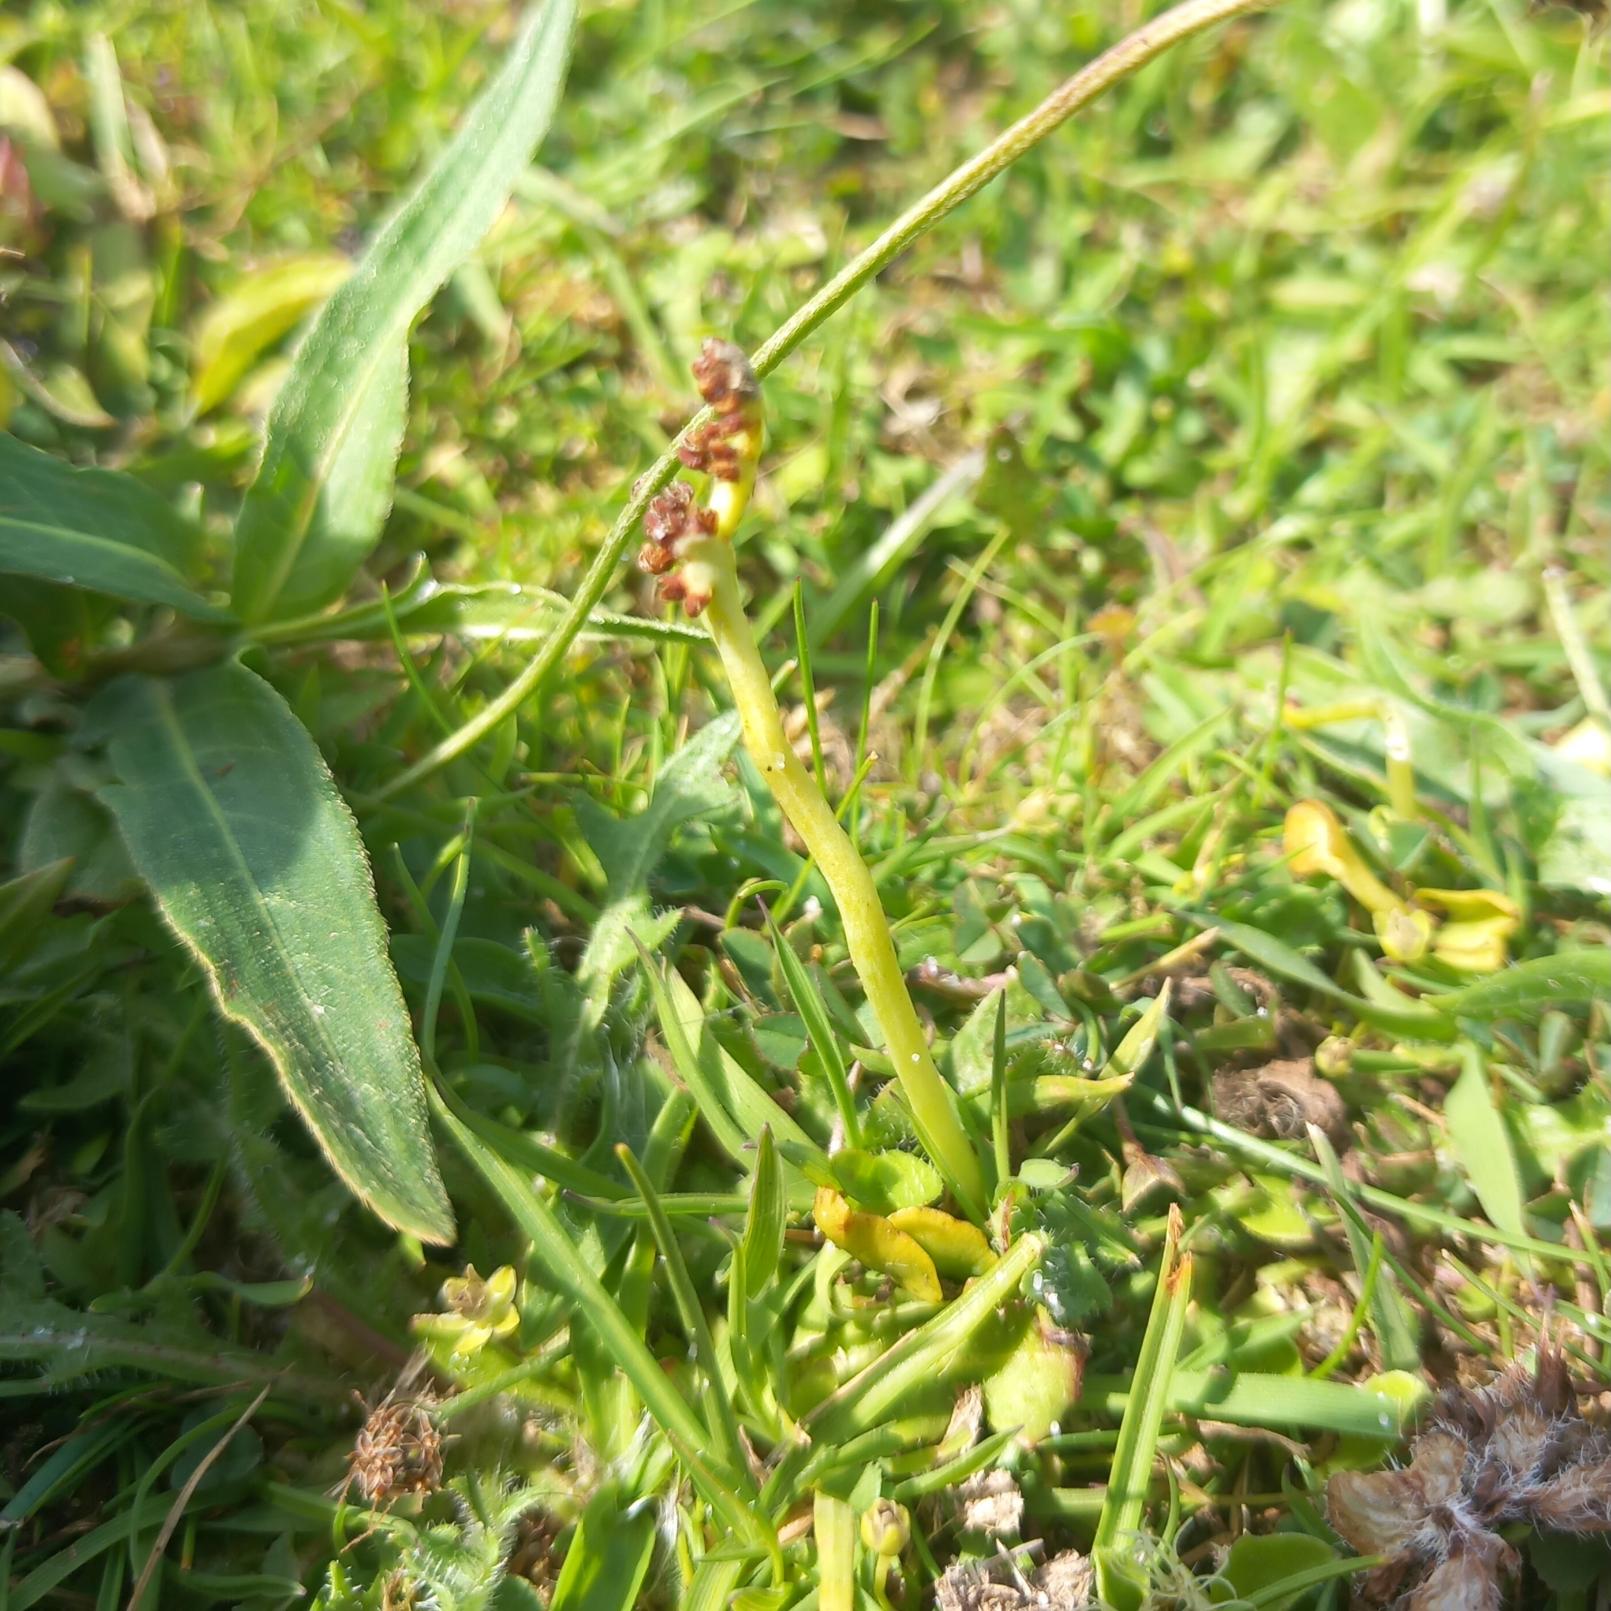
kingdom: Plantae
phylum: Tracheophyta
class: Polypodiopsida
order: Ophioglossales
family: Ophioglossaceae
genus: Botrychium
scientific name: Botrychium simplex
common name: Enkelt månerude
